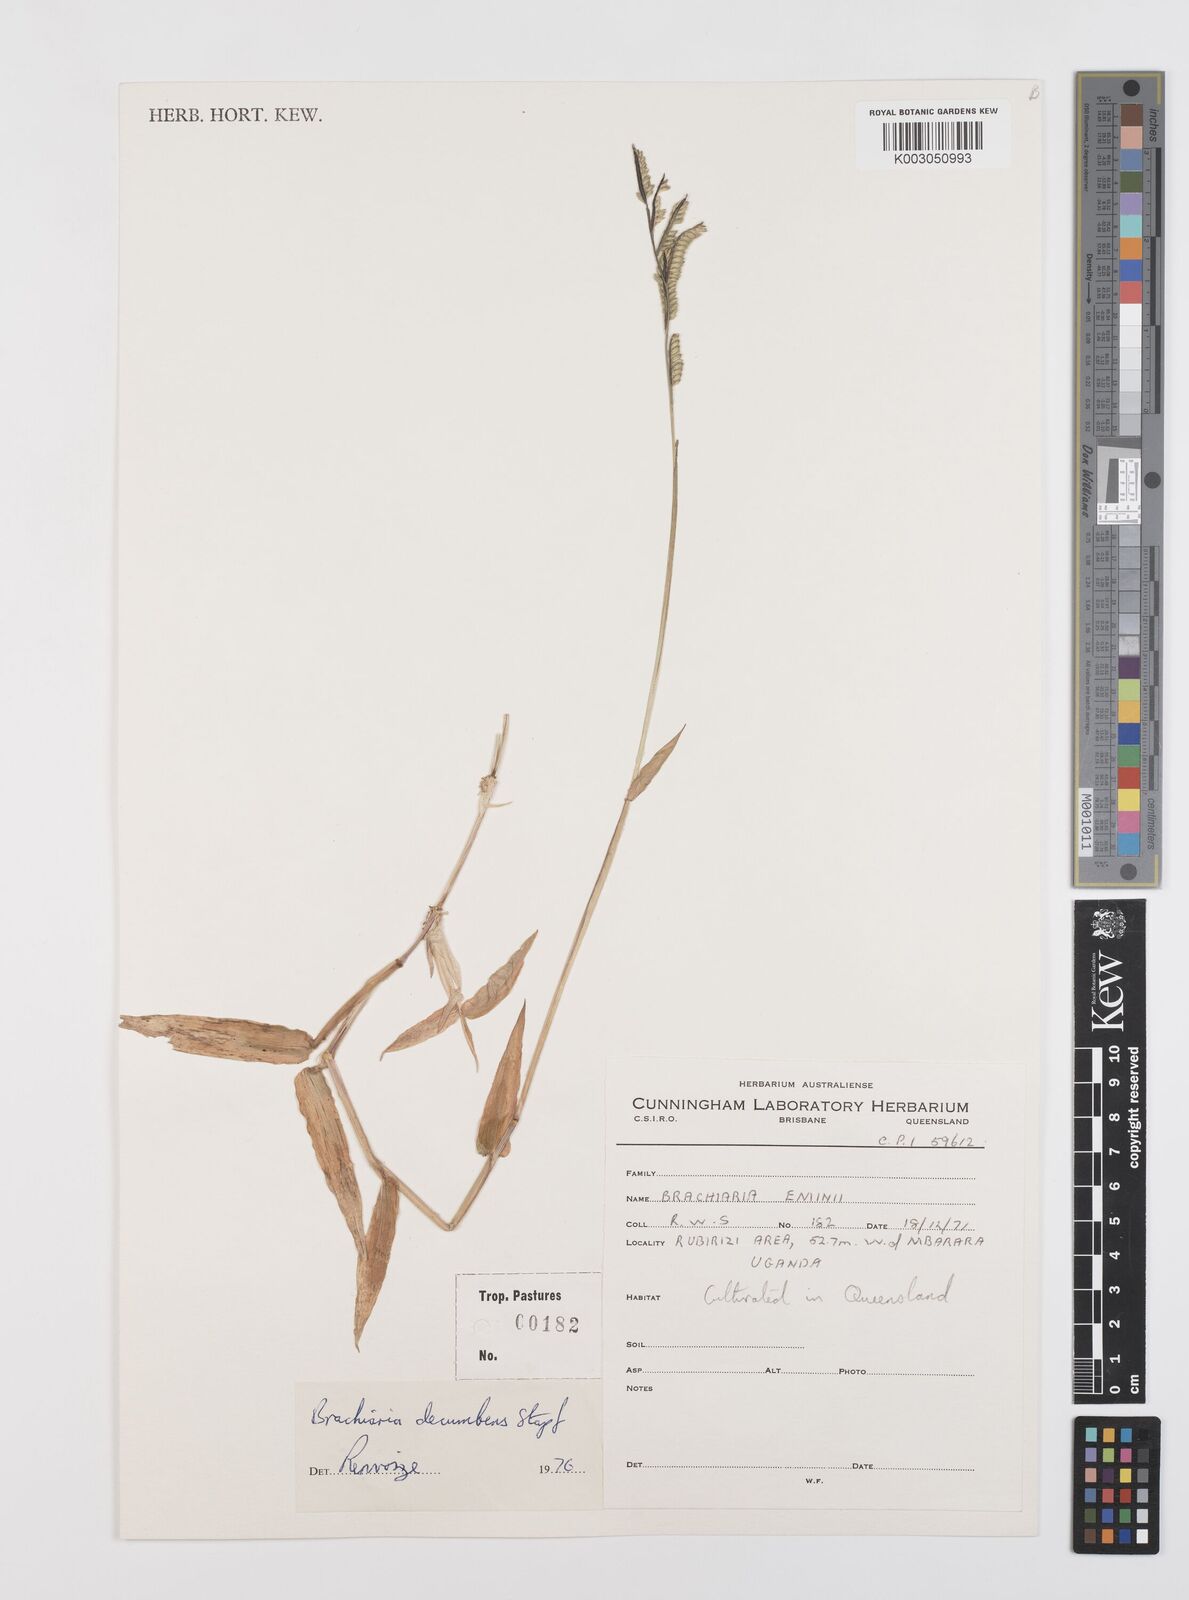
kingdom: Plantae
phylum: Tracheophyta
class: Liliopsida
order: Poales
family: Poaceae
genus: Urochloa
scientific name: Urochloa brizantha
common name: Palisade signalgrass
